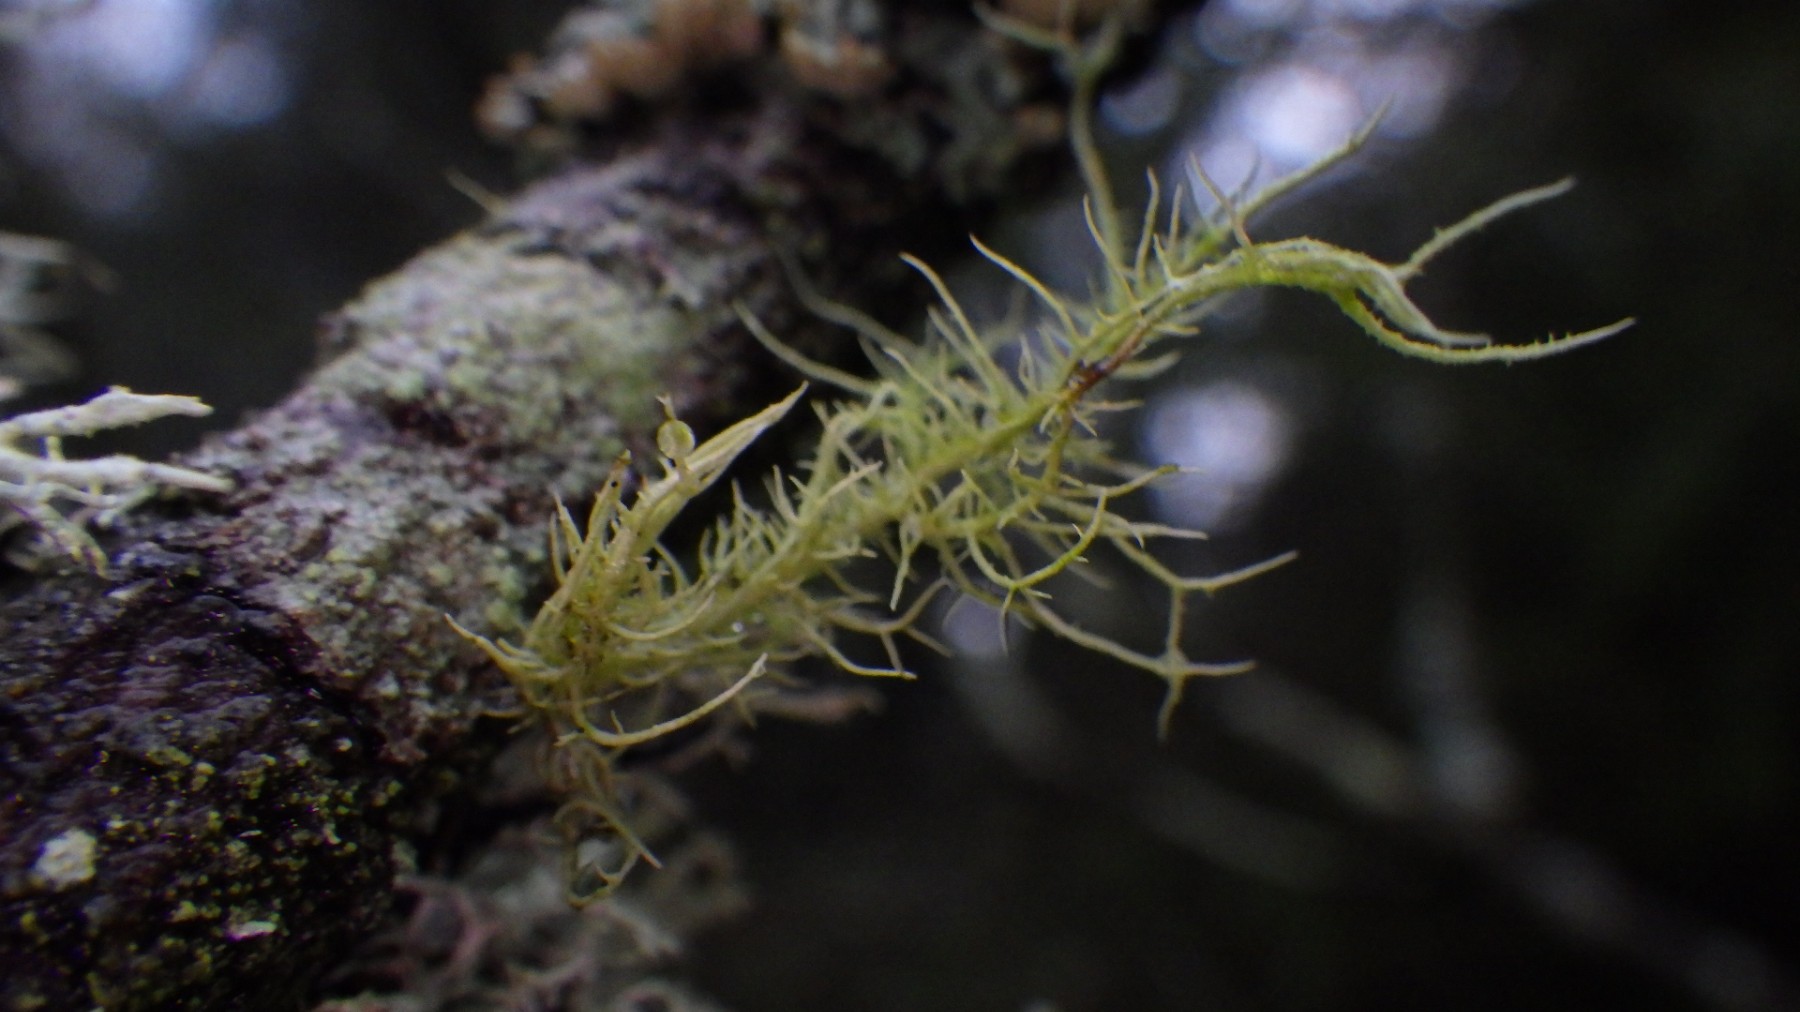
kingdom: Fungi
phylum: Ascomycota
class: Lecanoromycetes
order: Lecanorales
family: Parmeliaceae
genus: Usnea
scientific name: Usnea hirta
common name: liden skæglav
